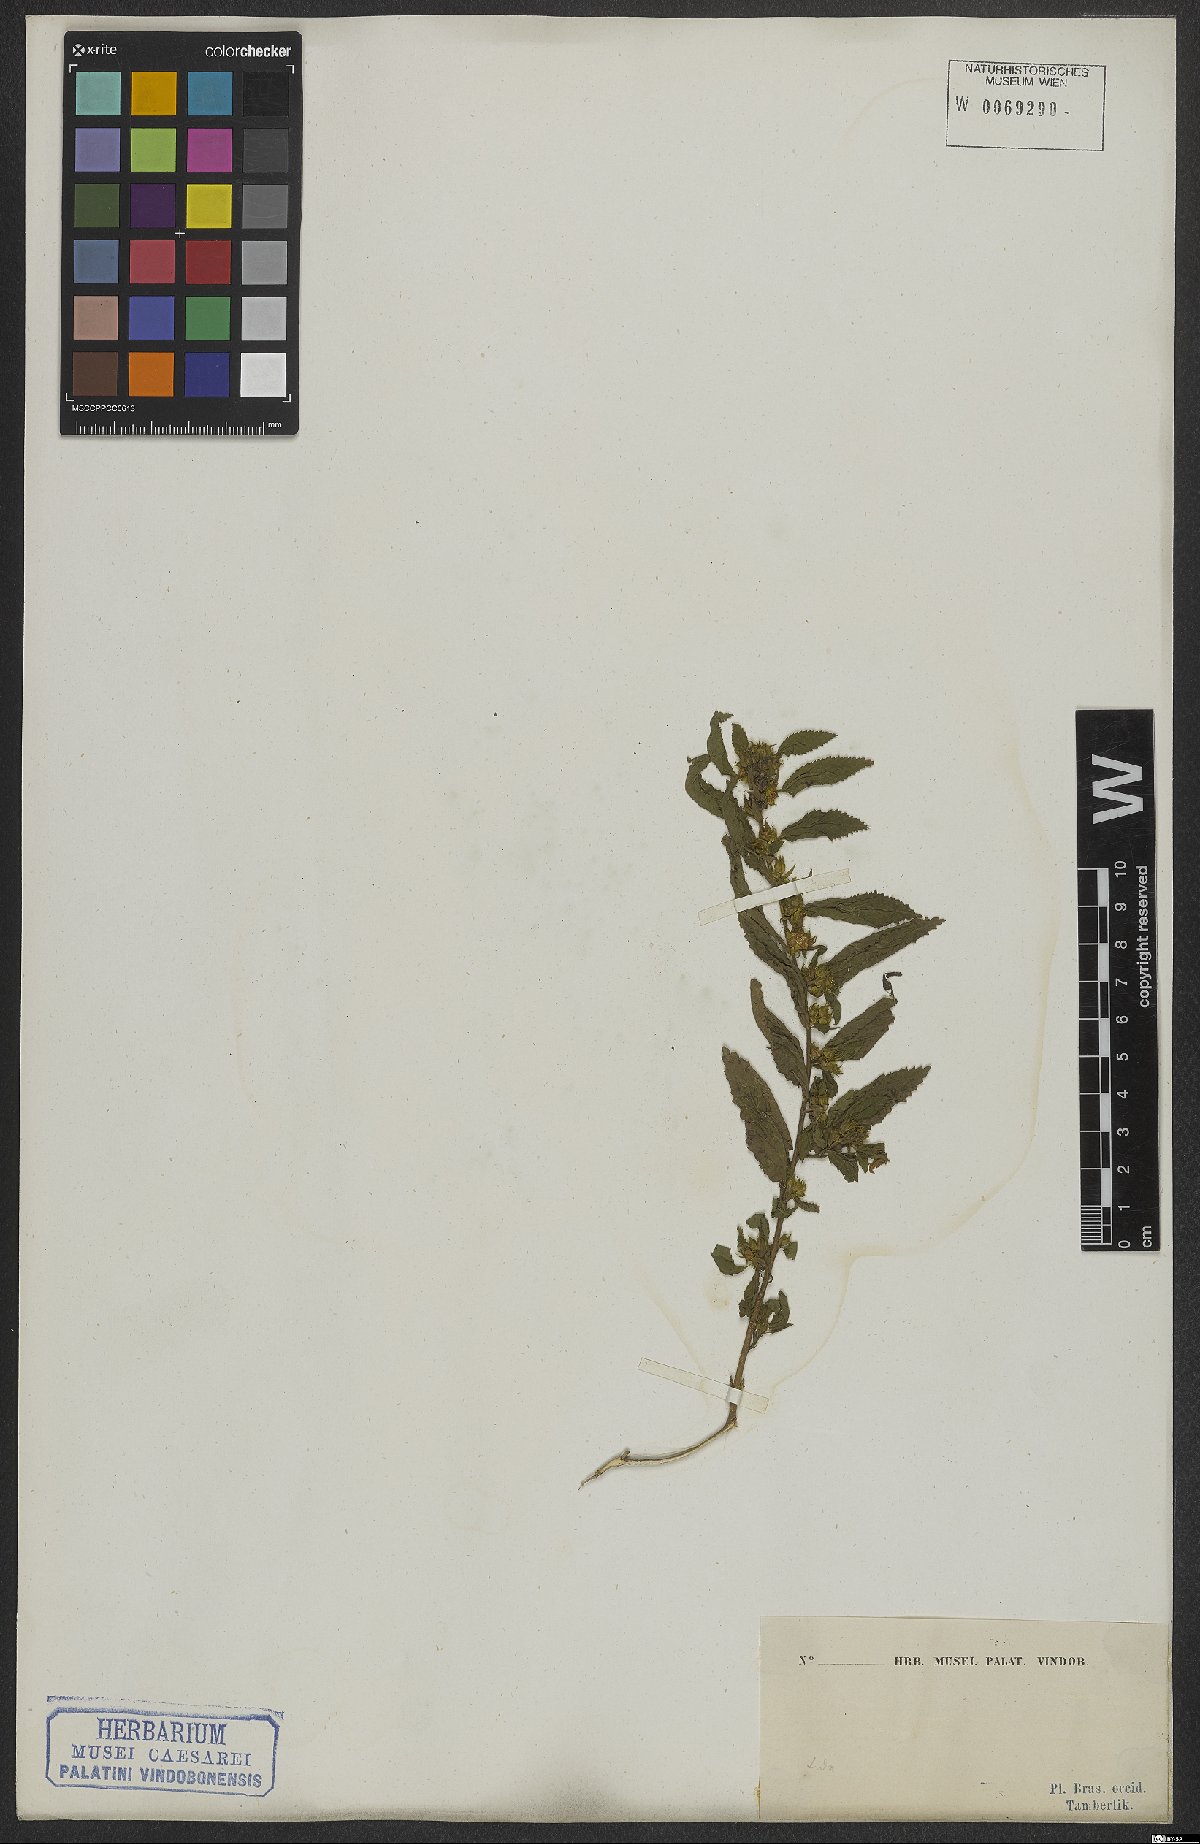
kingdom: Plantae
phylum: Tracheophyta
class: Magnoliopsida
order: Malvales
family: Malvaceae
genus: Sida
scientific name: Sida glomerata
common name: Clustered fanpetals
